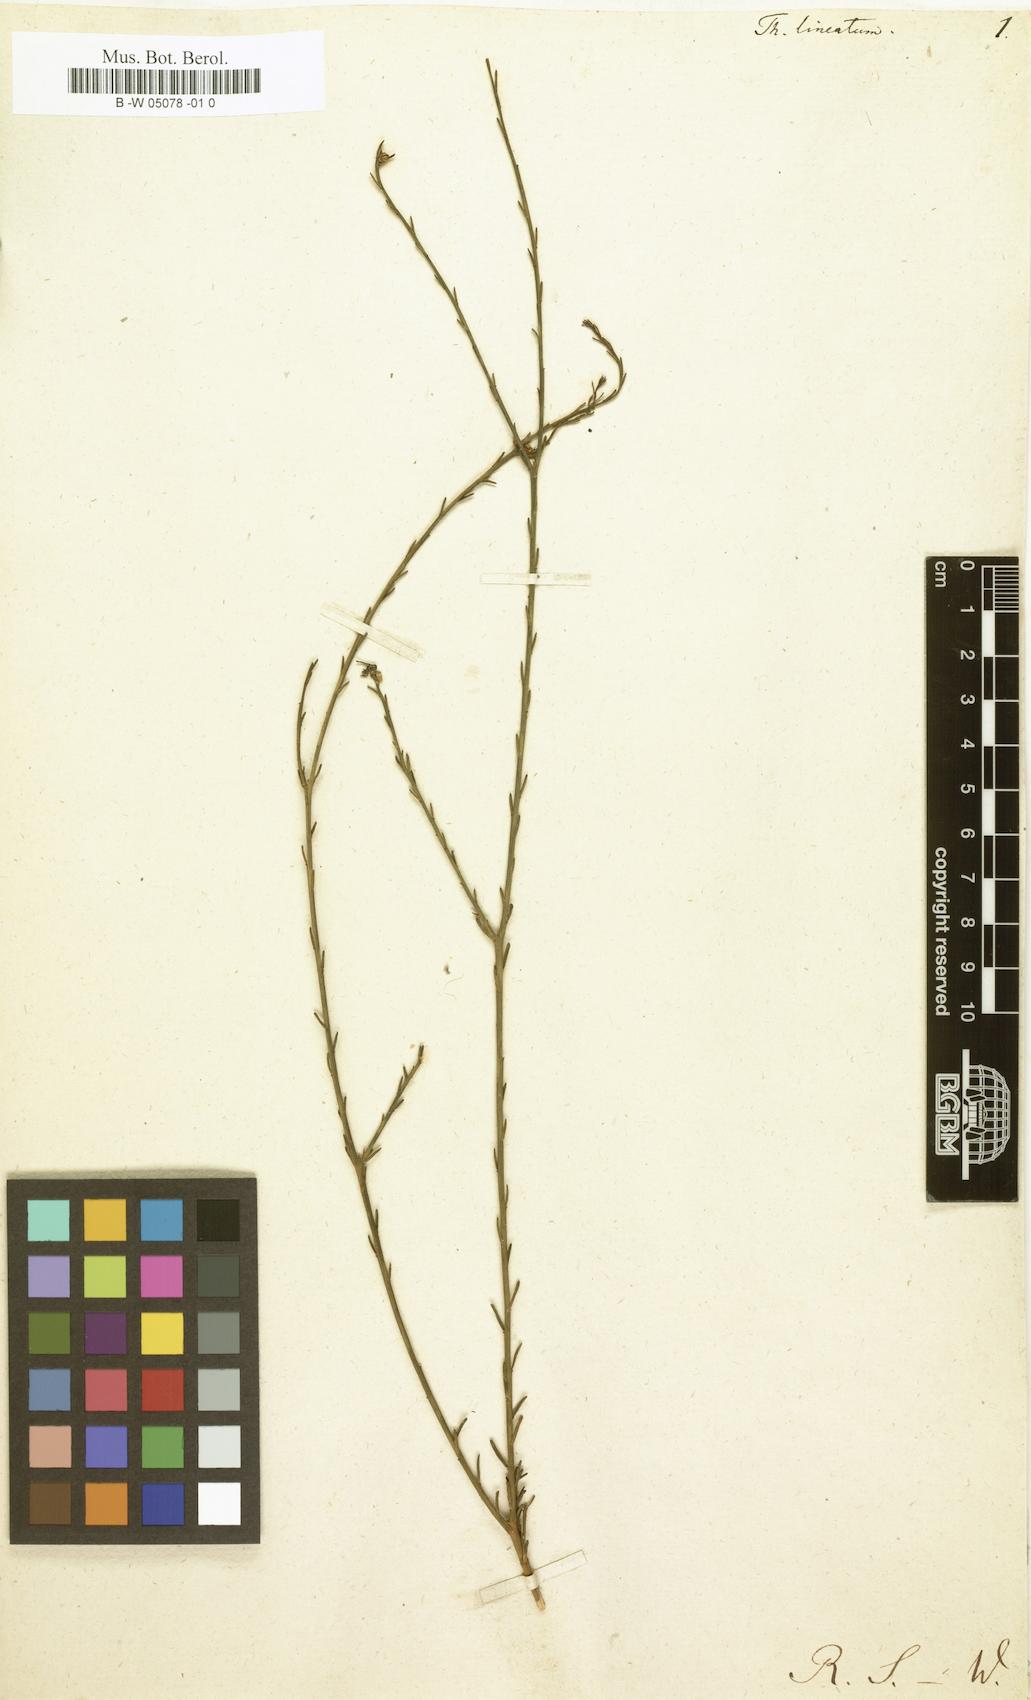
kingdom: Plantae
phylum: Tracheophyta
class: Magnoliopsida
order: Santalales
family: Thesiaceae
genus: Thesium
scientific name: Thesium lineatum
